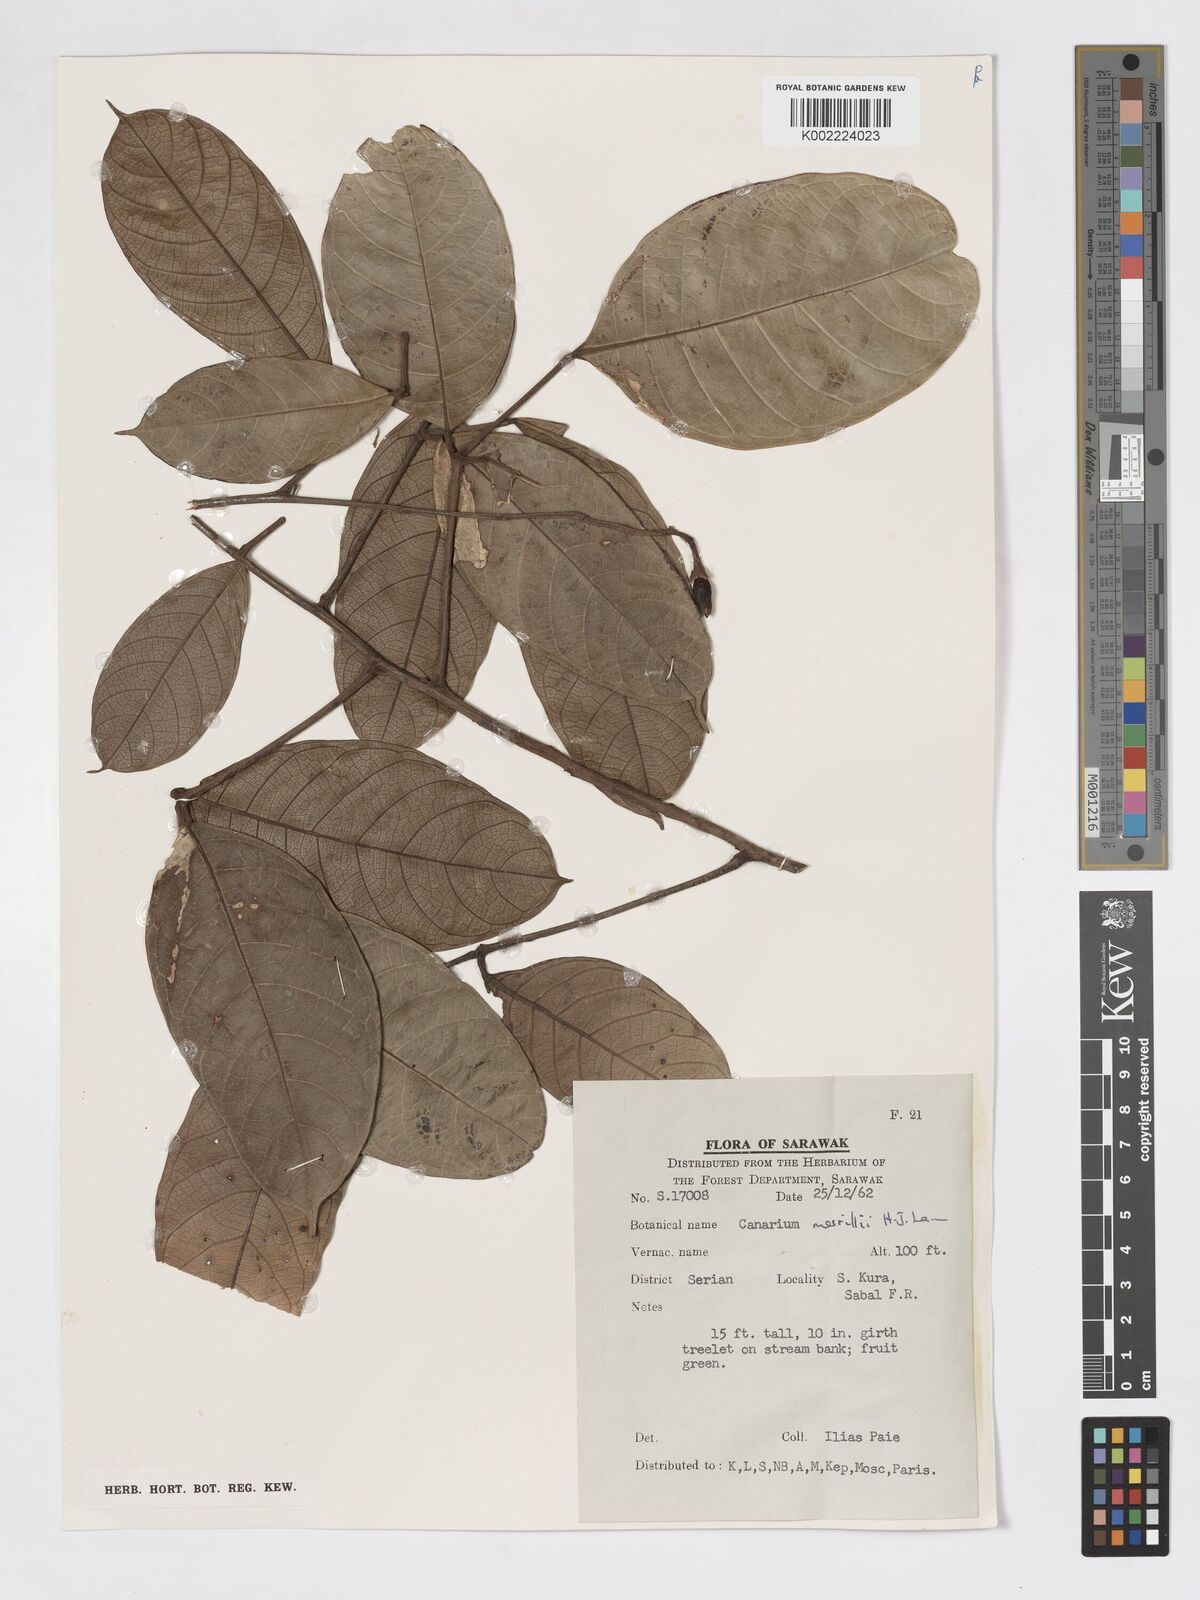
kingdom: Plantae
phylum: Tracheophyta
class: Magnoliopsida
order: Sapindales
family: Burseraceae
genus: Canarium
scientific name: Canarium merrillii
